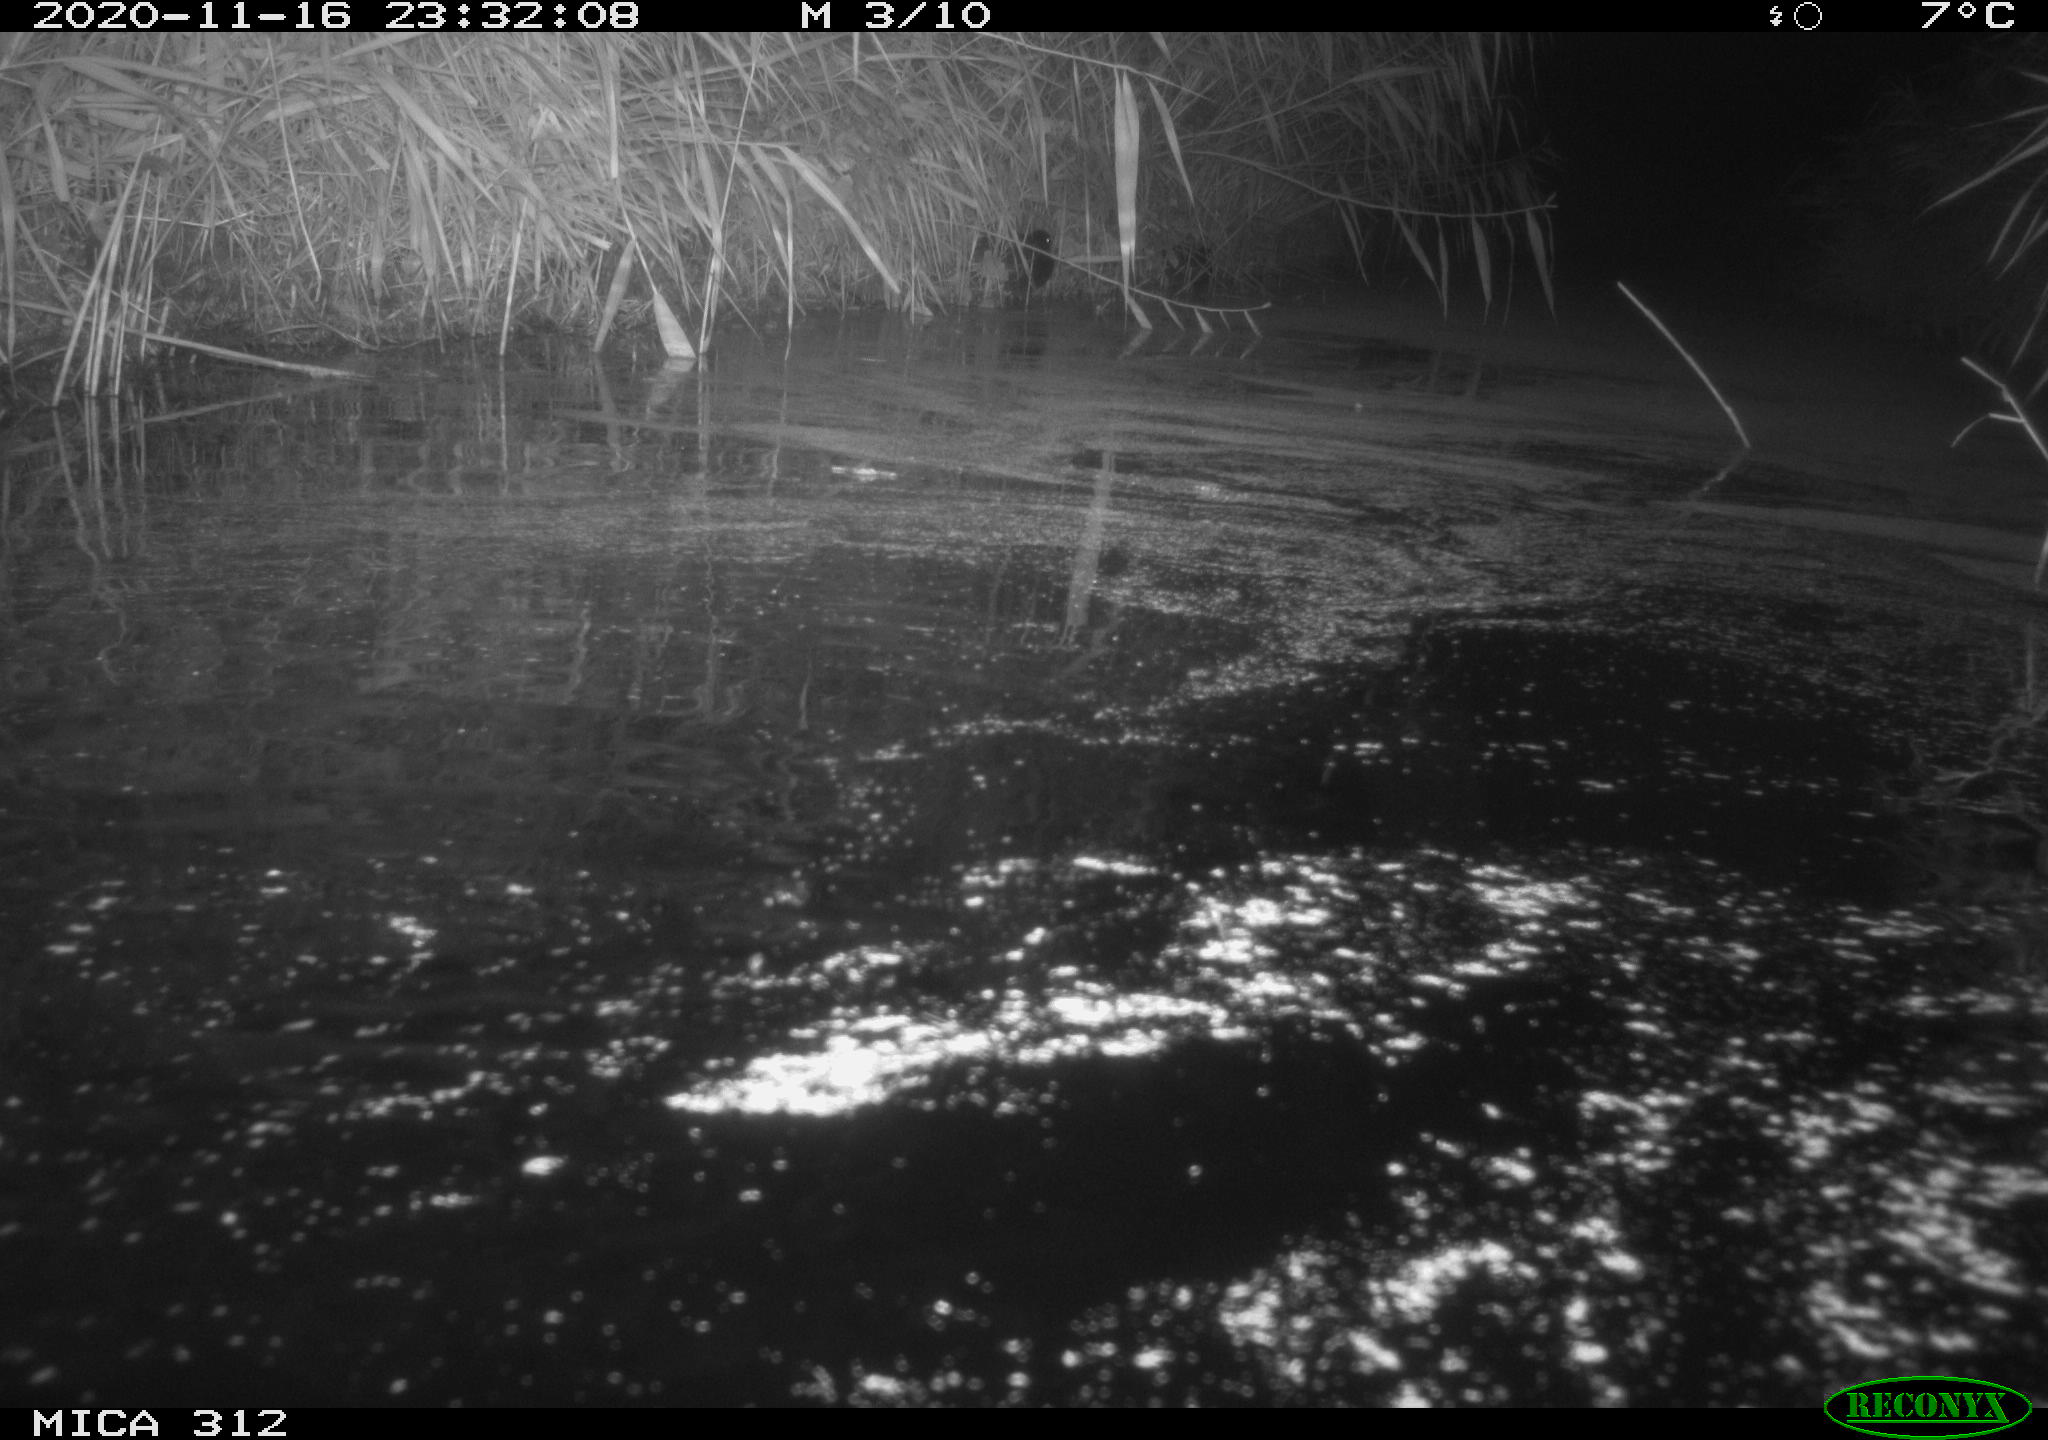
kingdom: Animalia
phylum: Chordata
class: Mammalia
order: Rodentia
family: Muridae
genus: Rattus
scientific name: Rattus norvegicus
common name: Brown rat
